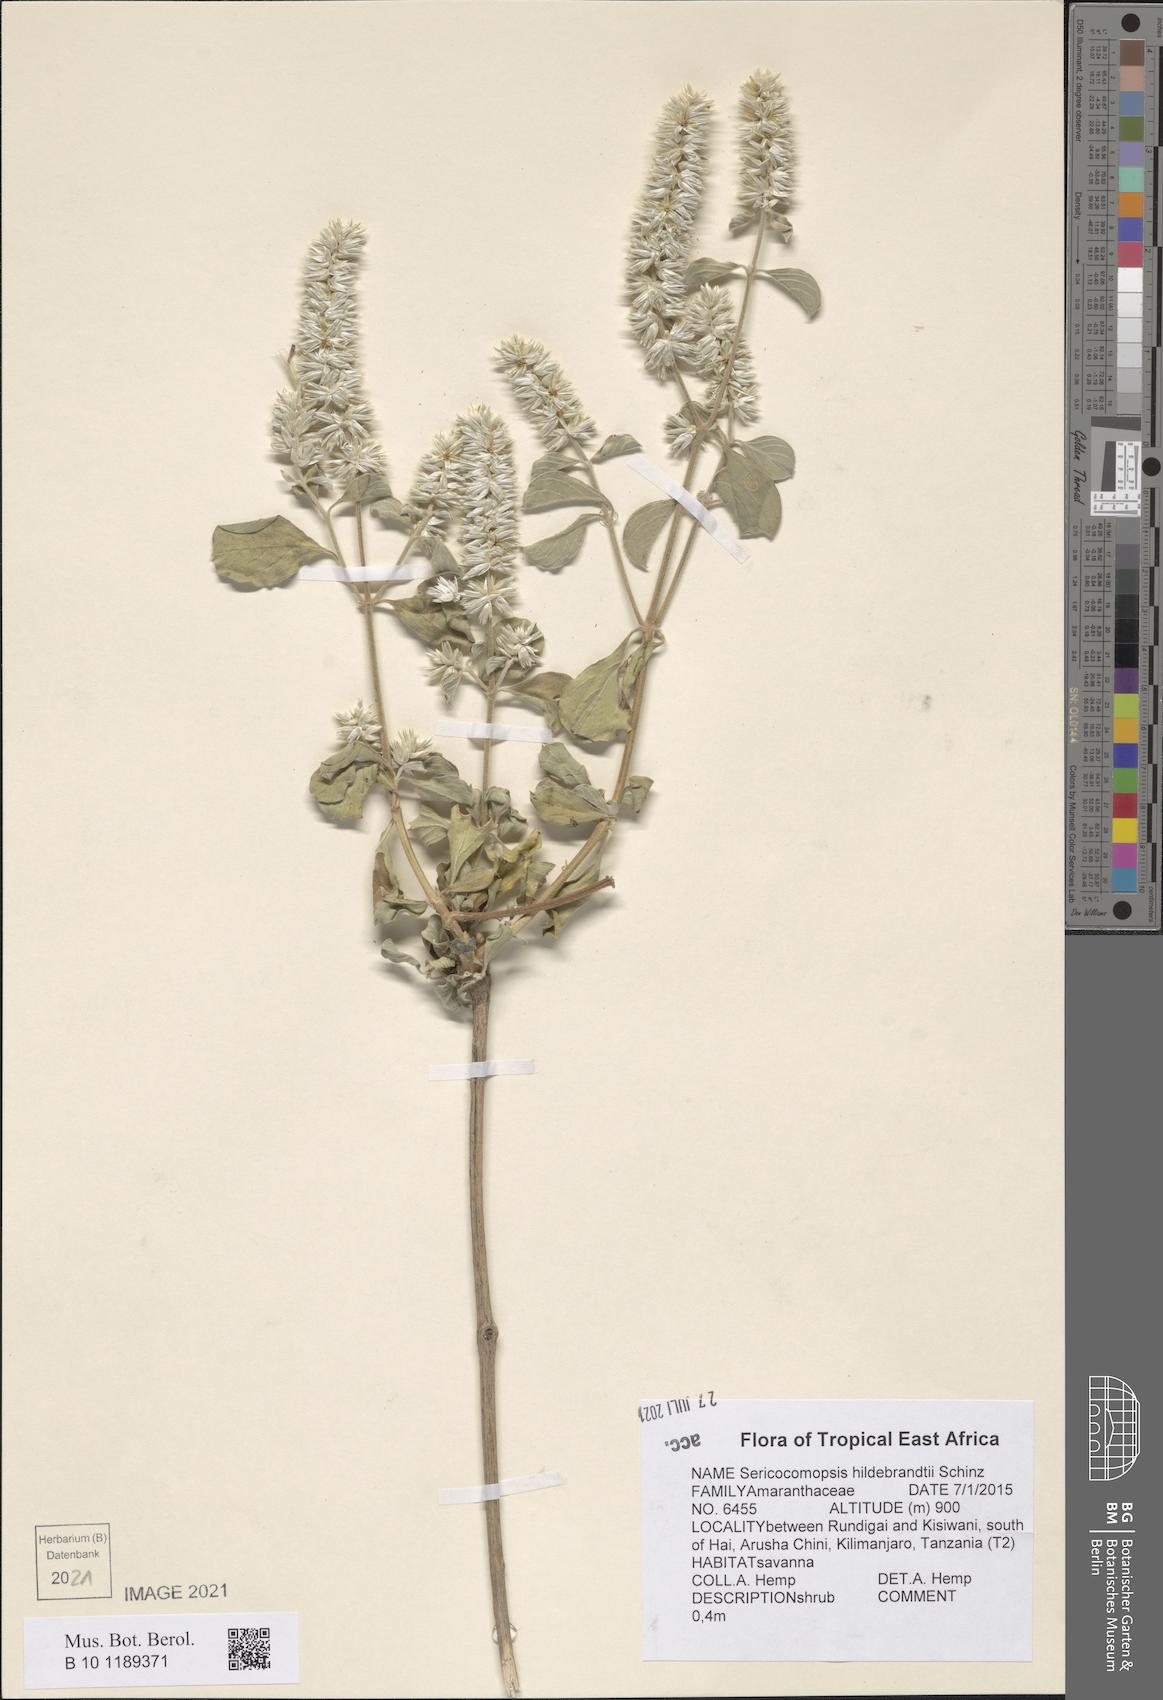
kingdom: Plantae
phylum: Tracheophyta
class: Magnoliopsida
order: Caryophyllales
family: Amaranthaceae
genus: Sericocomopsis
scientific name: Sericocomopsis hildebrandtii
